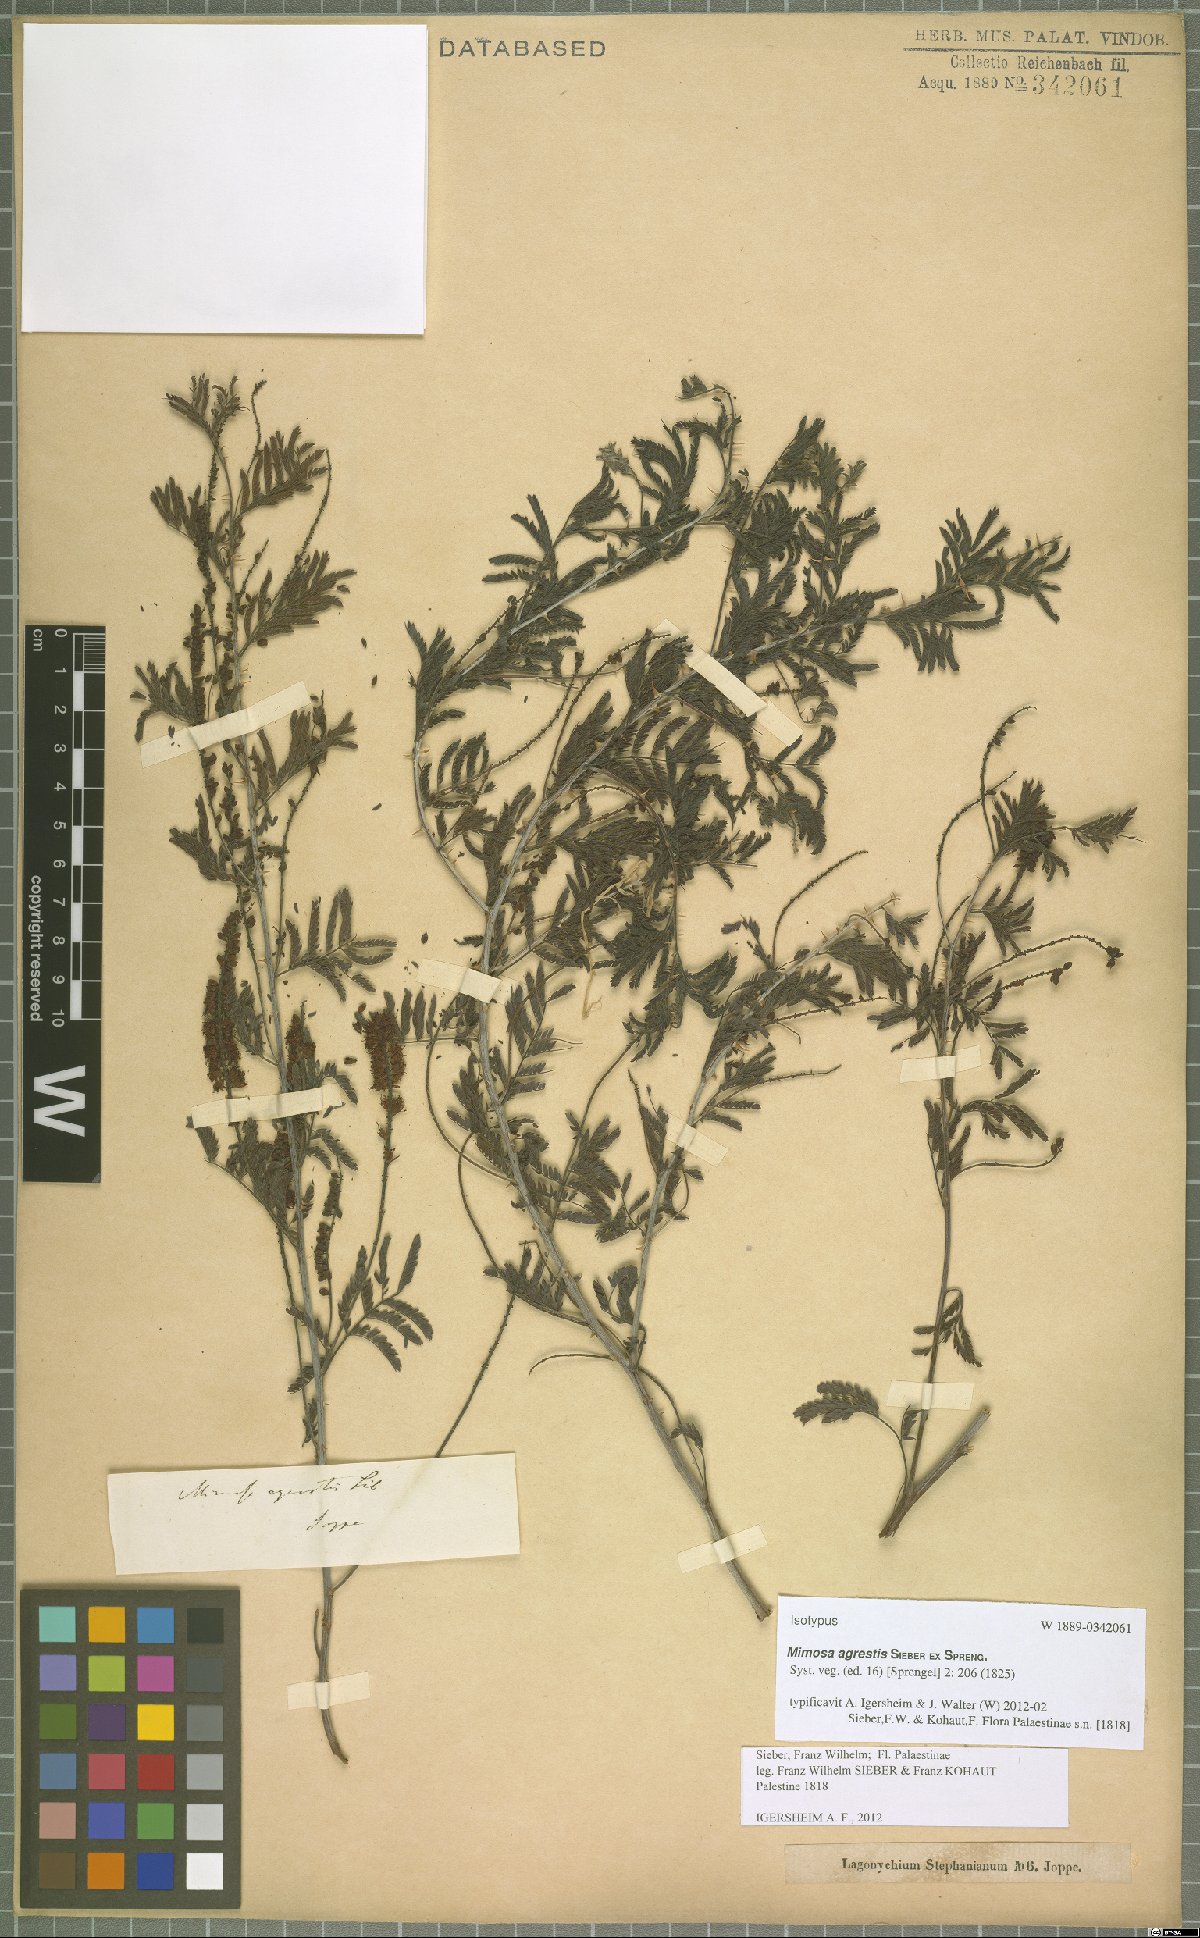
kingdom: Plantae
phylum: Tracheophyta
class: Magnoliopsida
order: Fabales
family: Fabaceae
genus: Prosopis
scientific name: Prosopis farcta
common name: Syrian mesquite
